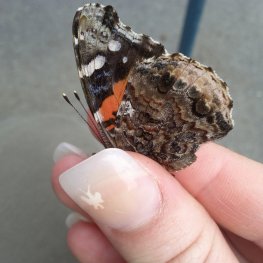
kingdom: Animalia
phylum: Arthropoda
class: Insecta
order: Lepidoptera
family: Nymphalidae
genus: Vanessa
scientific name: Vanessa atalanta
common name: Red Admiral
